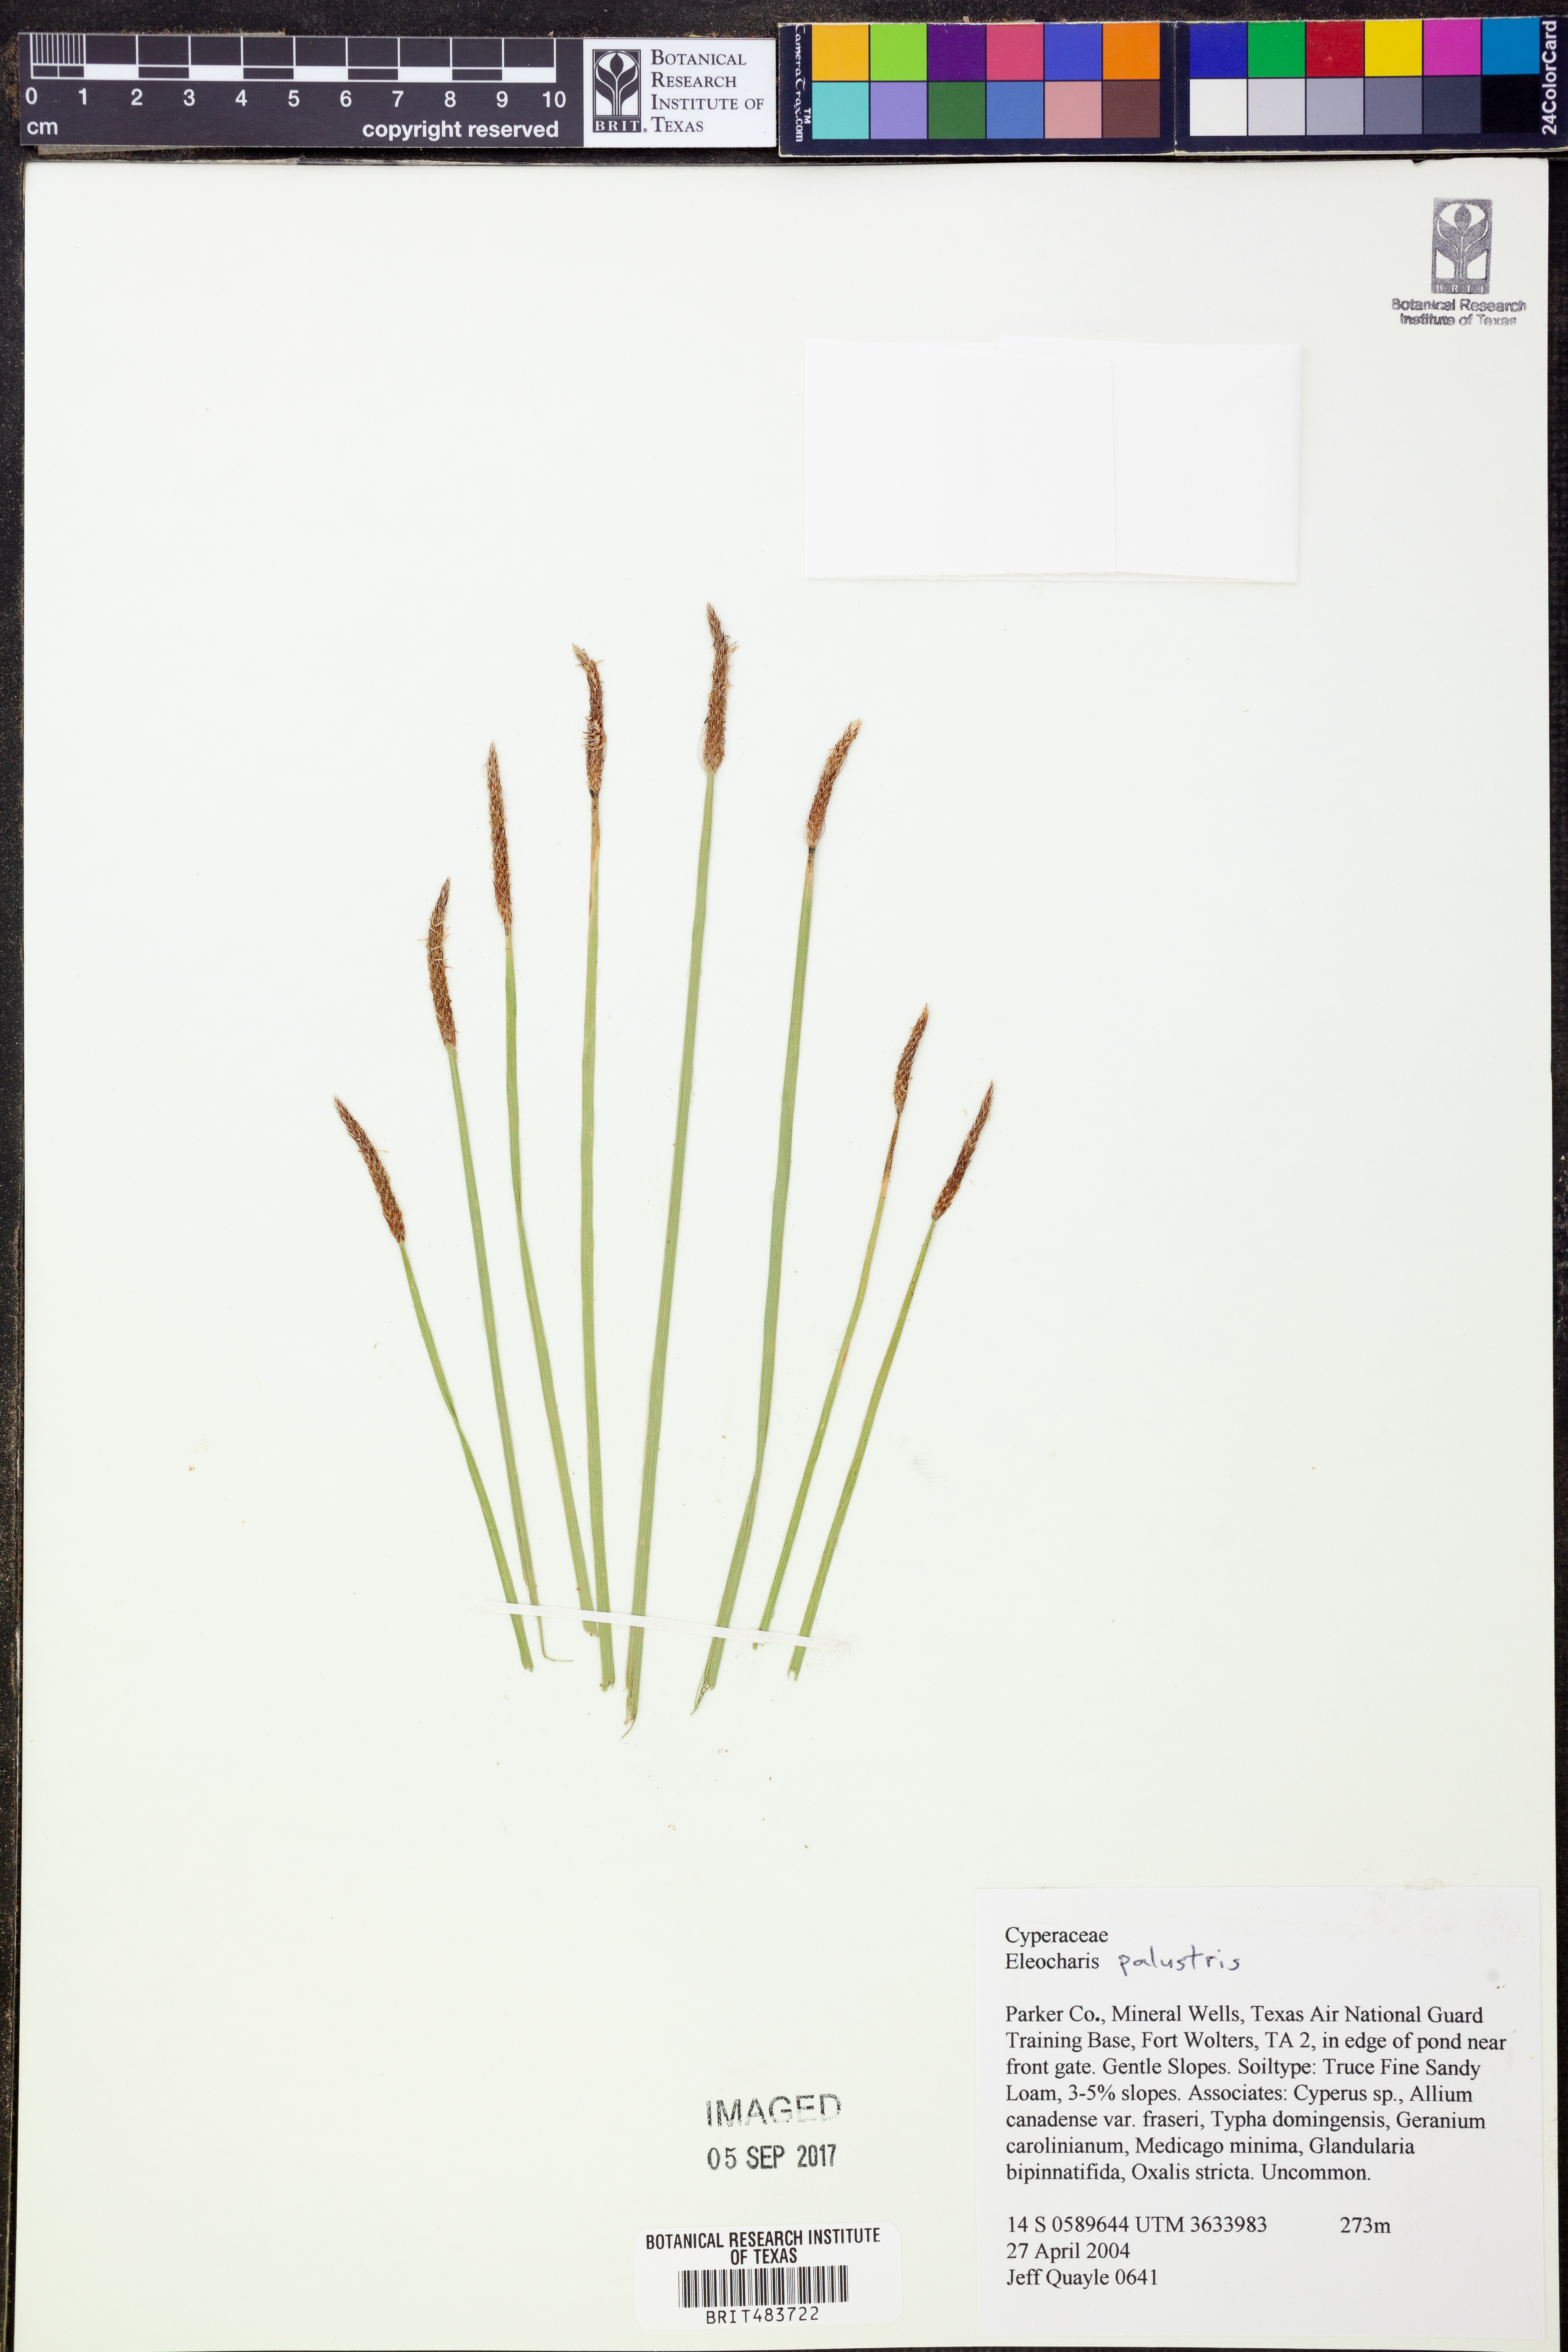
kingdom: Plantae
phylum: Tracheophyta
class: Liliopsida
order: Poales
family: Cyperaceae
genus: Eleocharis
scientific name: Eleocharis palustris
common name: Common spike-rush
